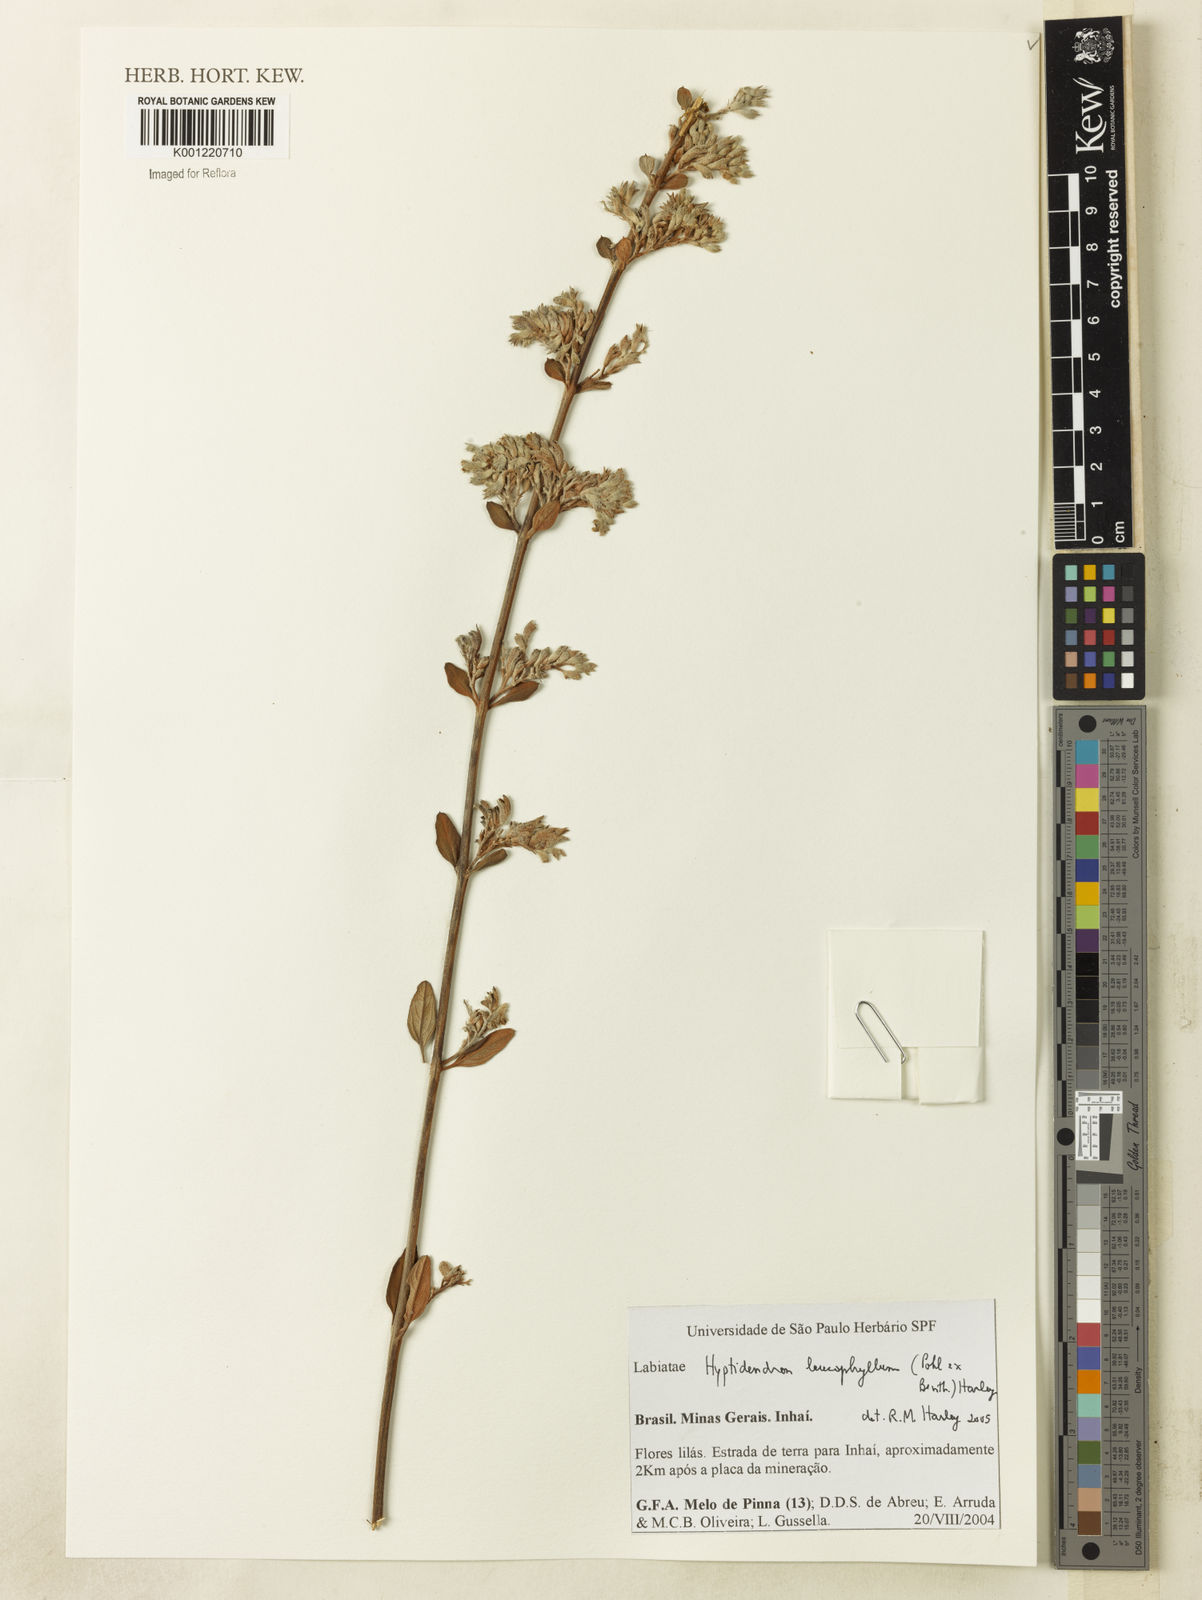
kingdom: Plantae
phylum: Tracheophyta
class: Magnoliopsida
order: Lamiales
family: Lamiaceae
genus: Hyptidendron
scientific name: Hyptidendron leucophyllum
